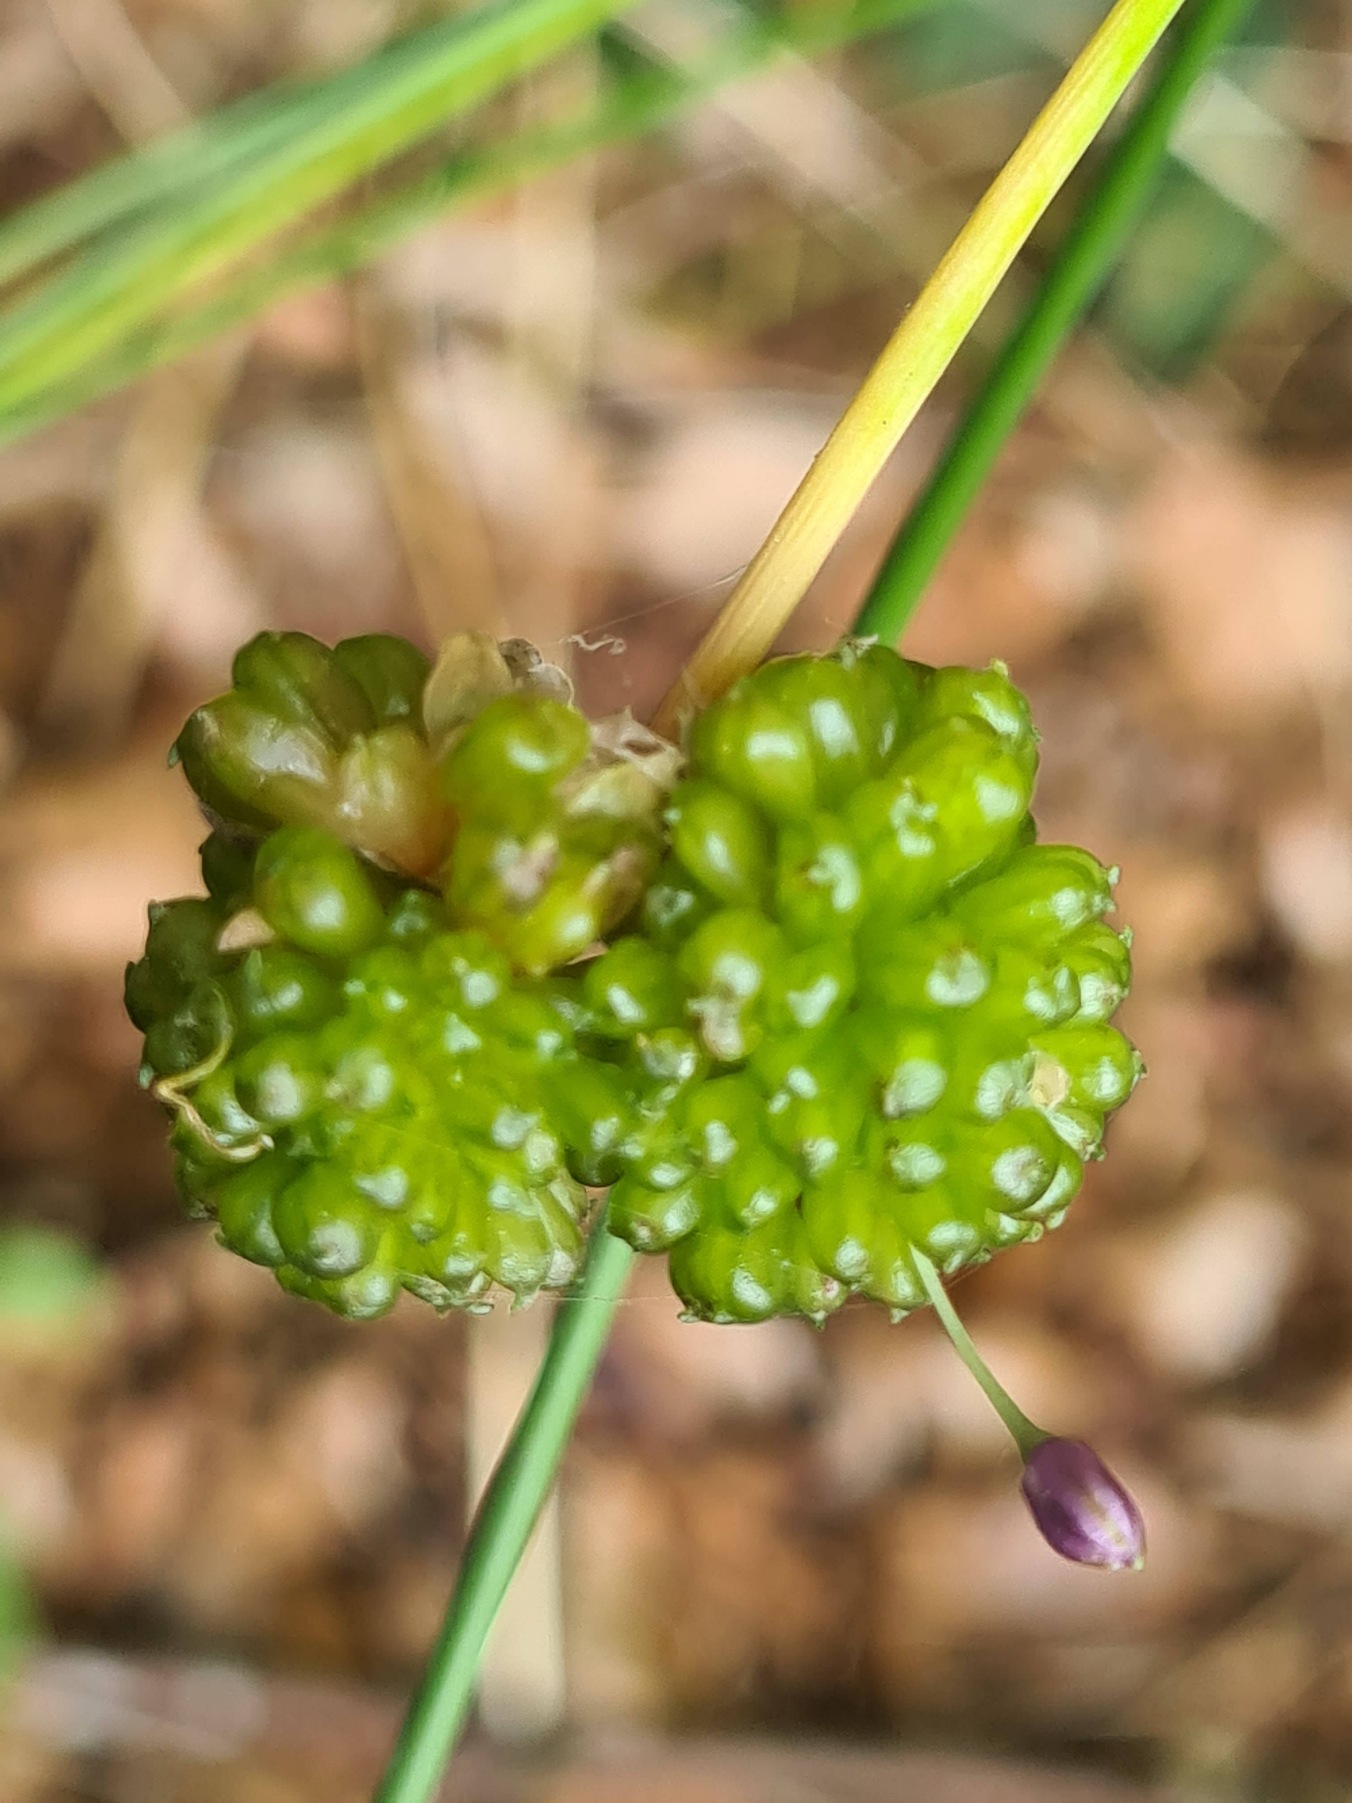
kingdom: Plantae
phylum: Tracheophyta
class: Liliopsida
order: Asparagales
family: Amaryllidaceae
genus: Allium
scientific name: Allium vineale
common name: Sand-løg
